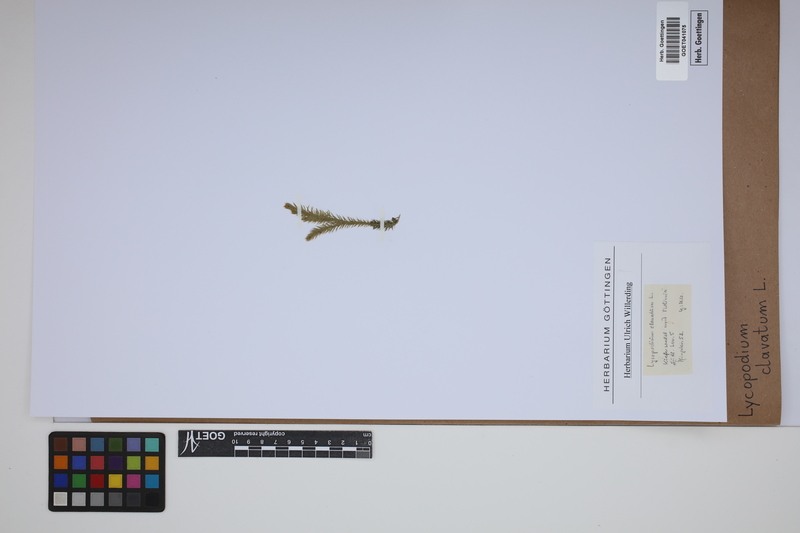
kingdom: Plantae
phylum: Tracheophyta
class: Lycopodiopsida
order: Lycopodiales
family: Lycopodiaceae
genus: Lycopodium
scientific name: Lycopodium clavatum
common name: Stag's-horn clubmoss
